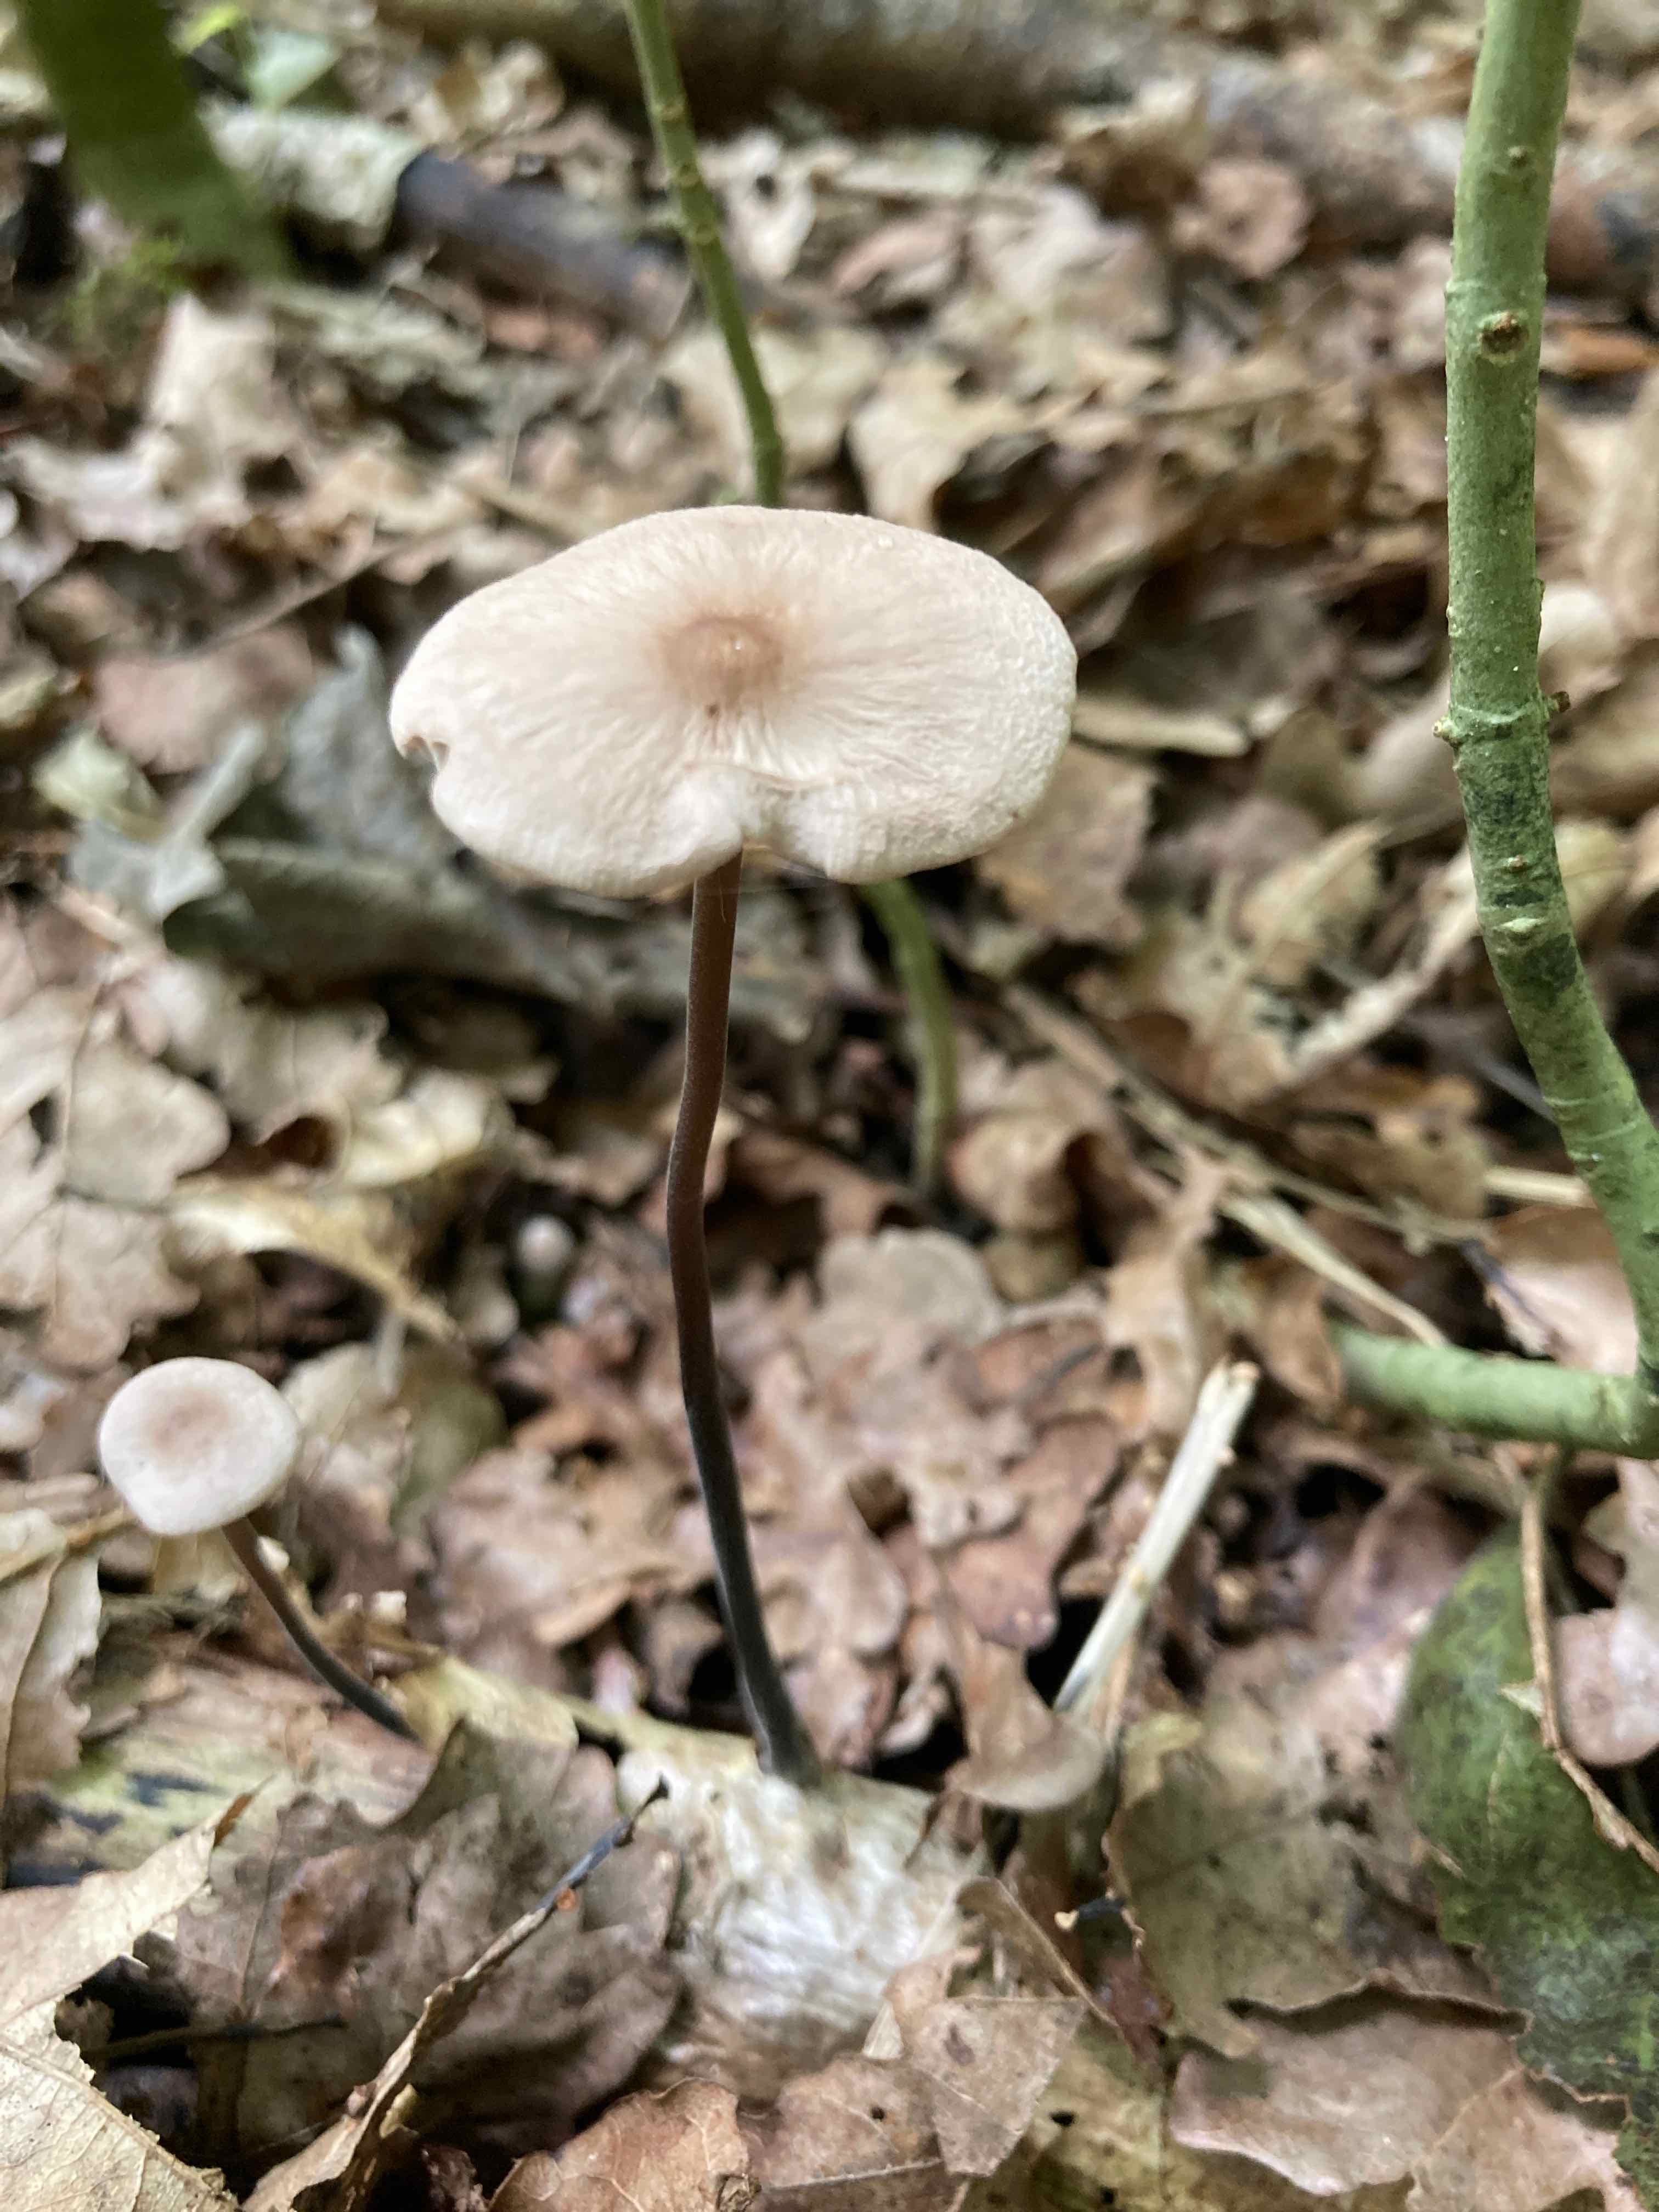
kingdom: Fungi
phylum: Basidiomycota
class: Agaricomycetes
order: Agaricales
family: Omphalotaceae
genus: Mycetinis
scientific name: Mycetinis alliaceus
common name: stor løghat
